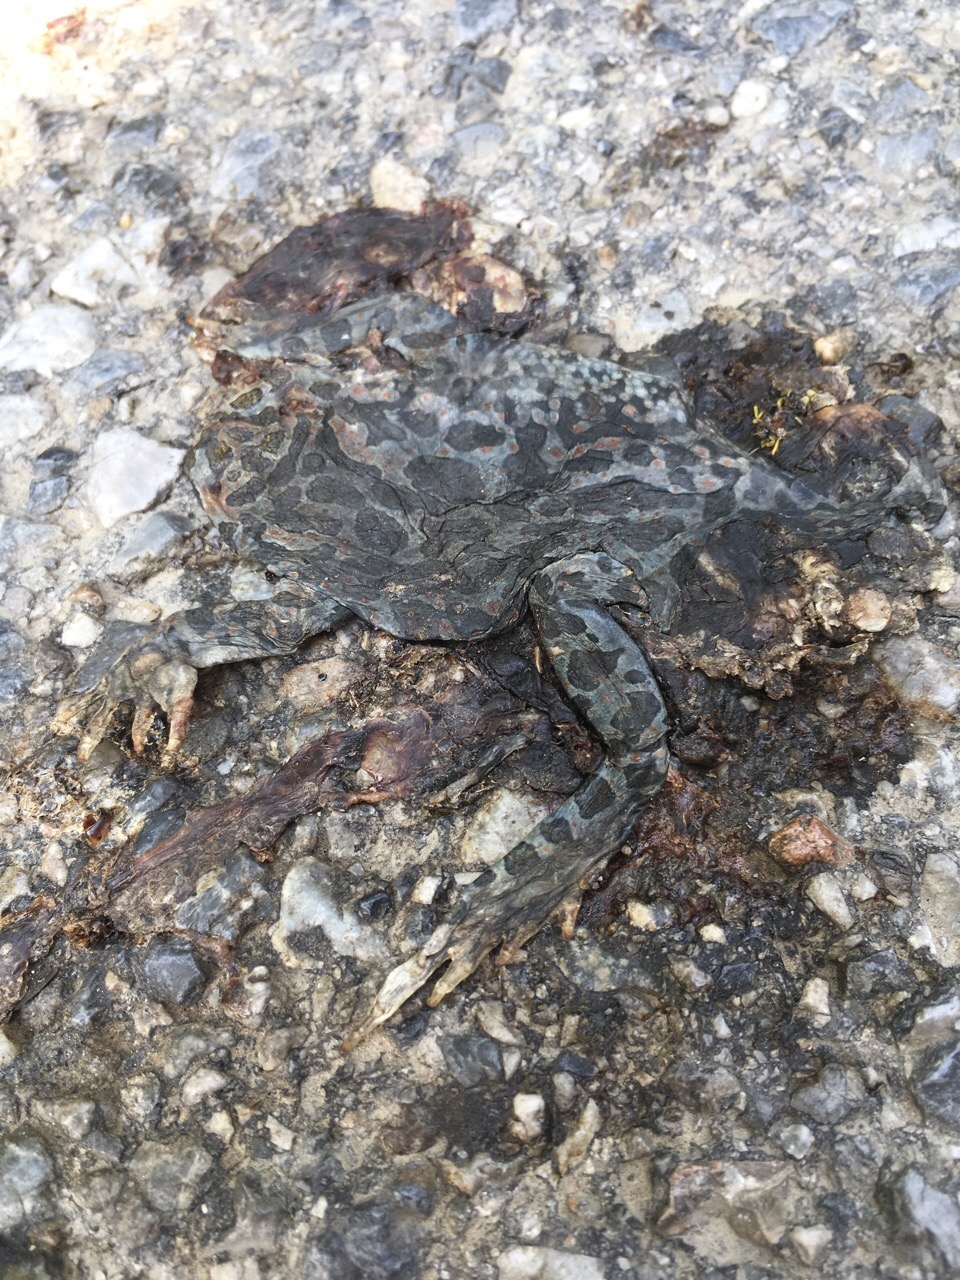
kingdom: Animalia
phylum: Chordata
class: Amphibia
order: Anura
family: Bufonidae
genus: Bufotes
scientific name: Bufotes viridis
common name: European green toad
